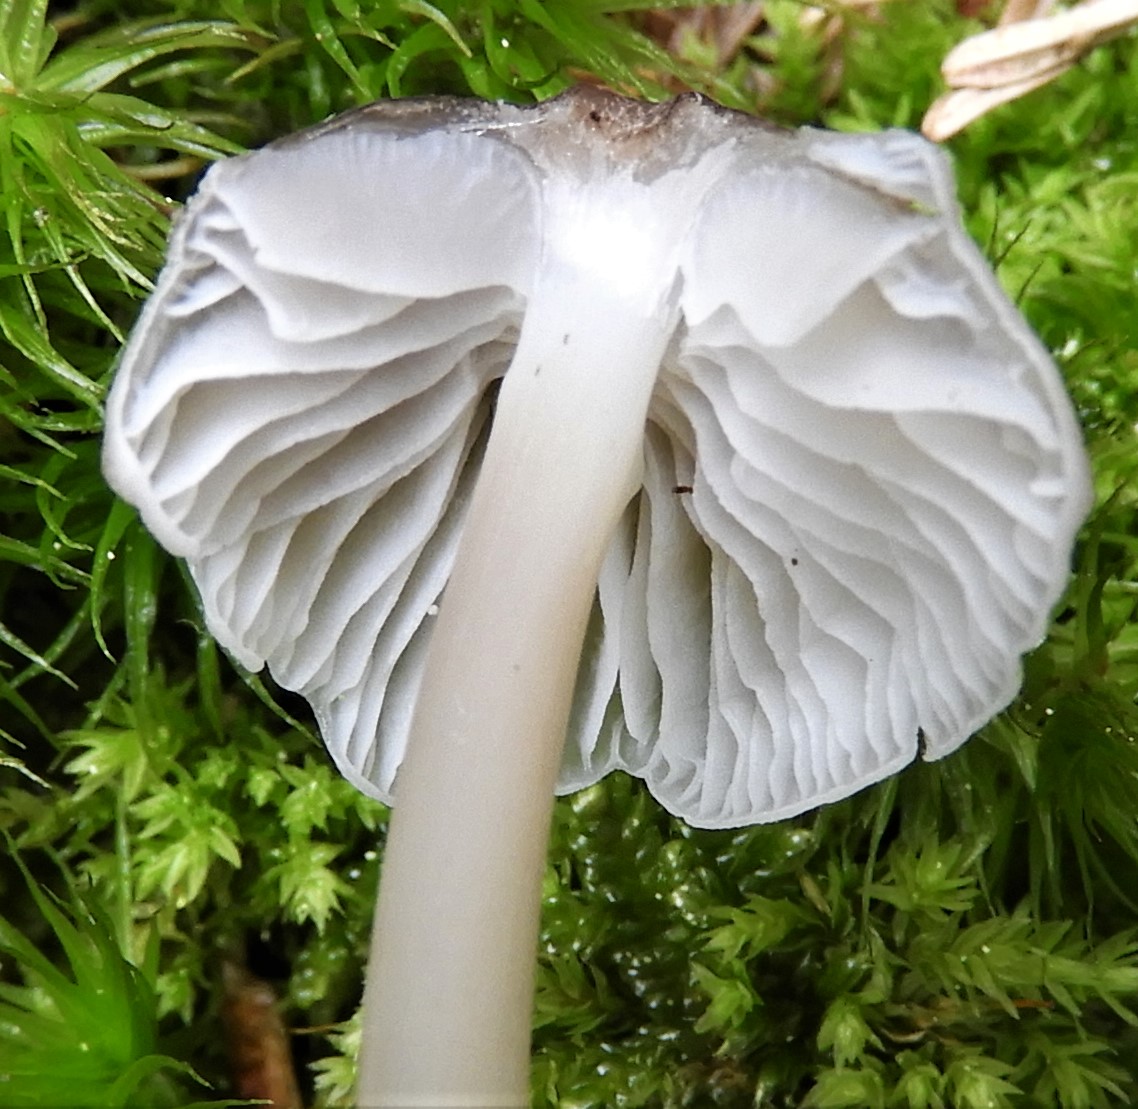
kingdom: Fungi
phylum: Basidiomycota
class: Agaricomycetes
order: Agaricales
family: Mycenaceae
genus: Mycena
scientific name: Mycena galericulata
